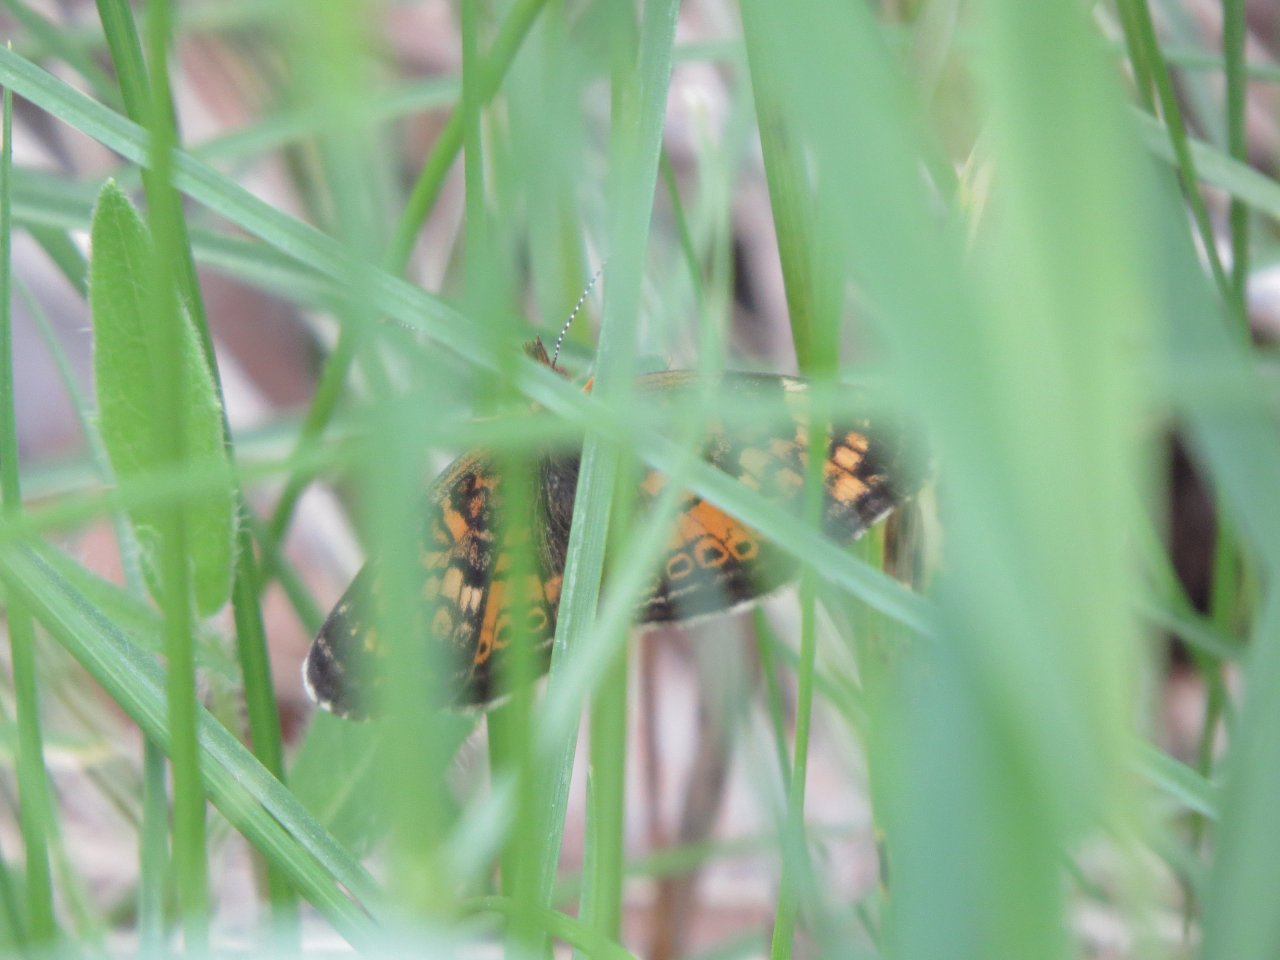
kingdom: Animalia
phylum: Arthropoda
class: Insecta
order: Lepidoptera
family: Nymphalidae
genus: Phyciodes
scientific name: Phyciodes tharos
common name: Northern Crescent
